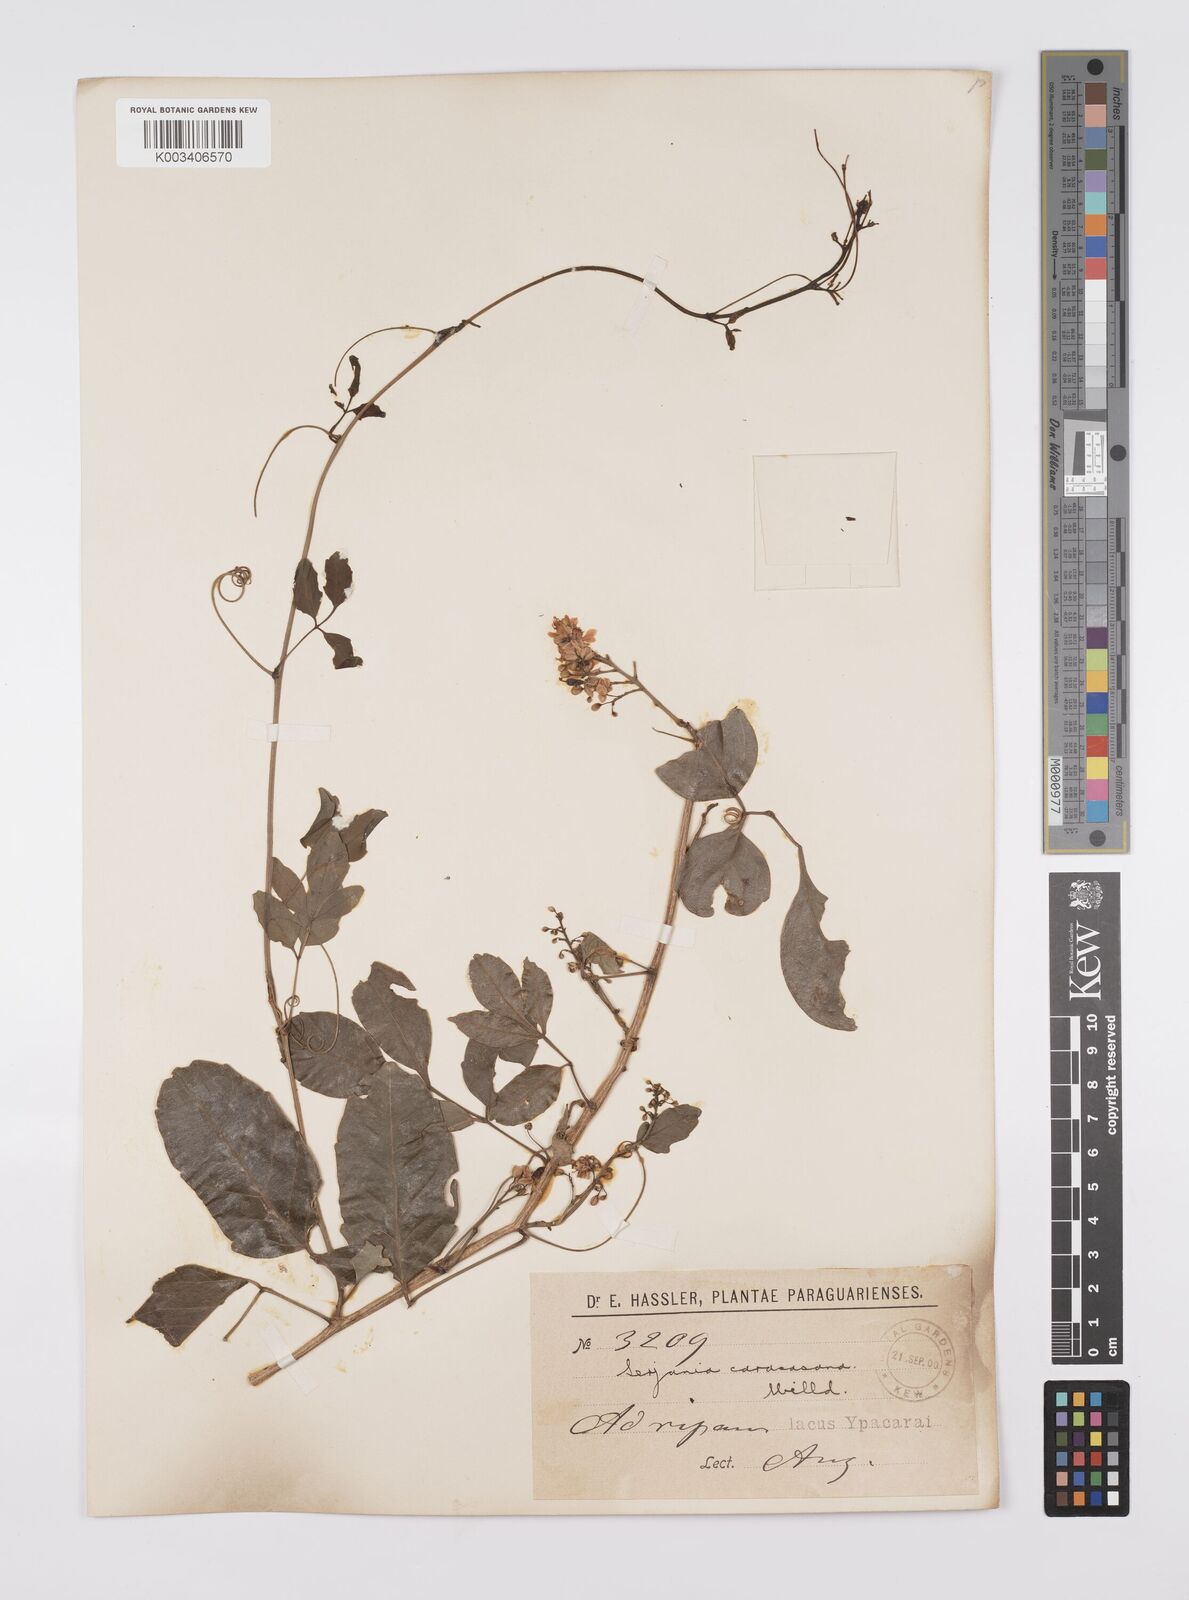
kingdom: Plantae
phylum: Tracheophyta
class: Magnoliopsida
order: Sapindales
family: Sapindaceae
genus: Serjania
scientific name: Serjania caracasana
